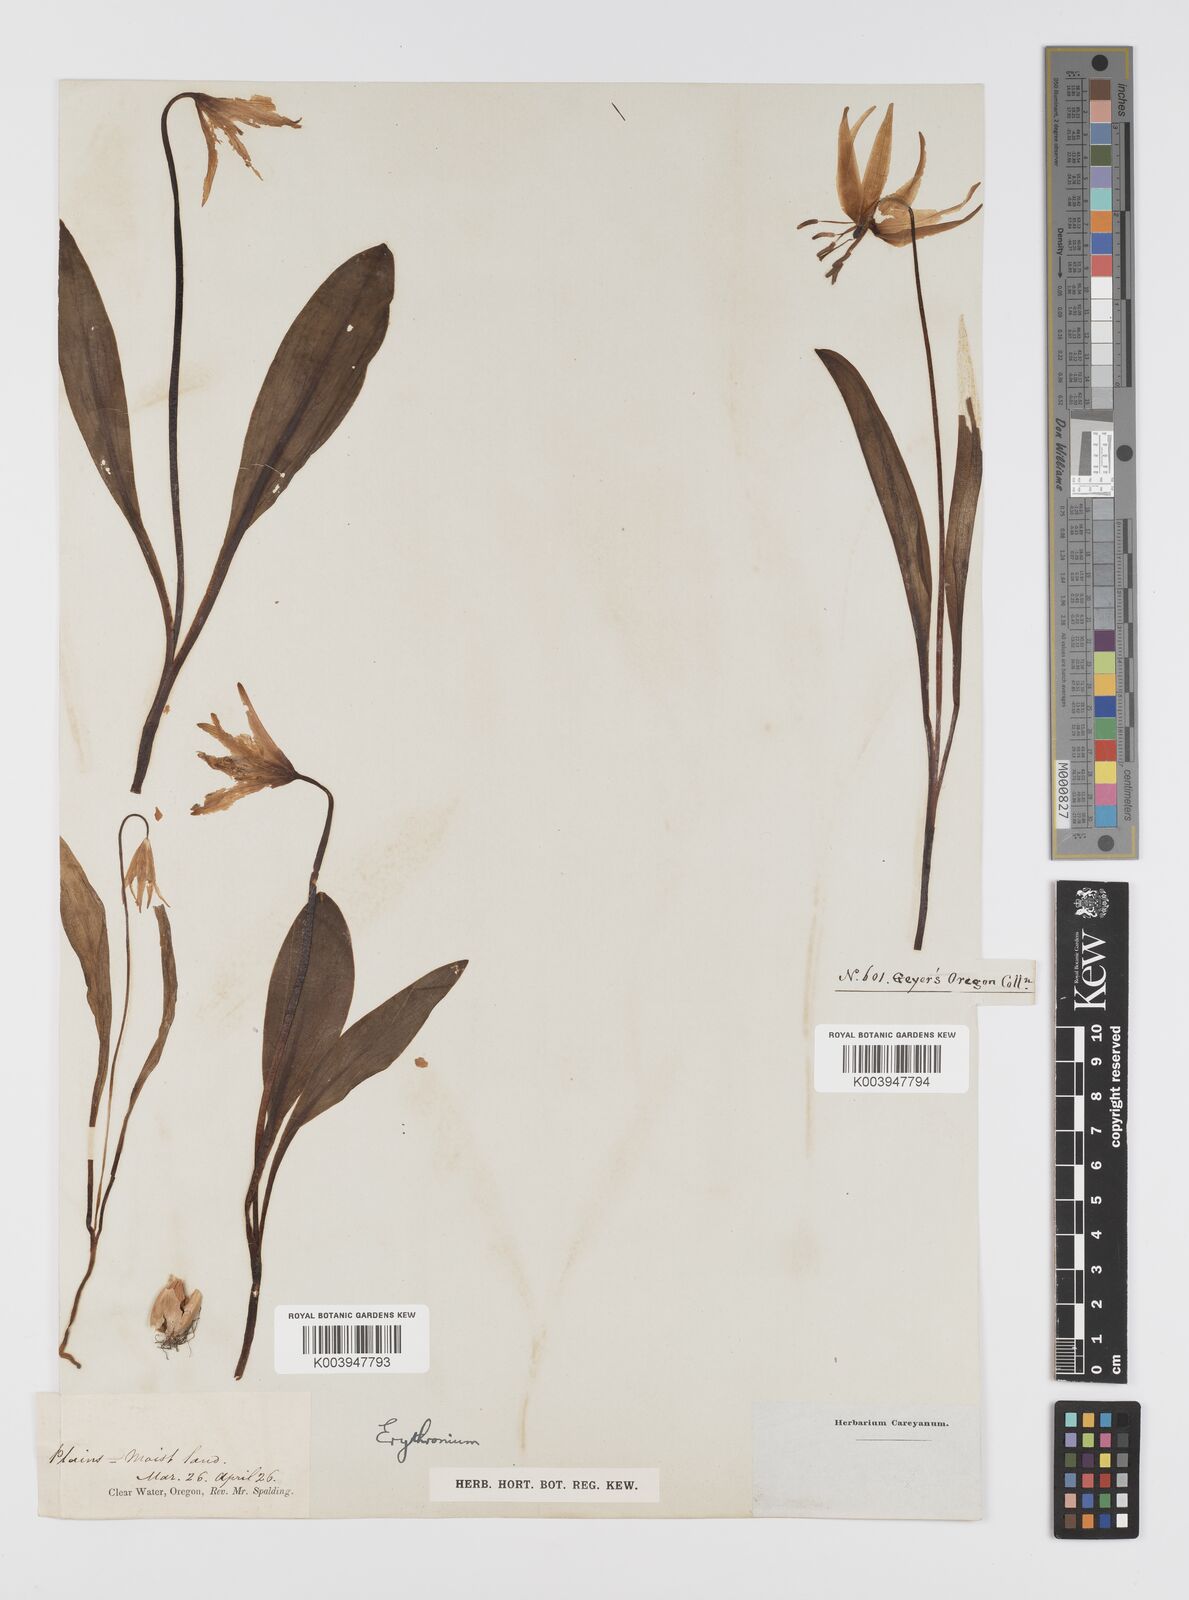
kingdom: Plantae
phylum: Tracheophyta
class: Liliopsida
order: Liliales
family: Liliaceae
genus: Erythronium
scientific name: Erythronium
